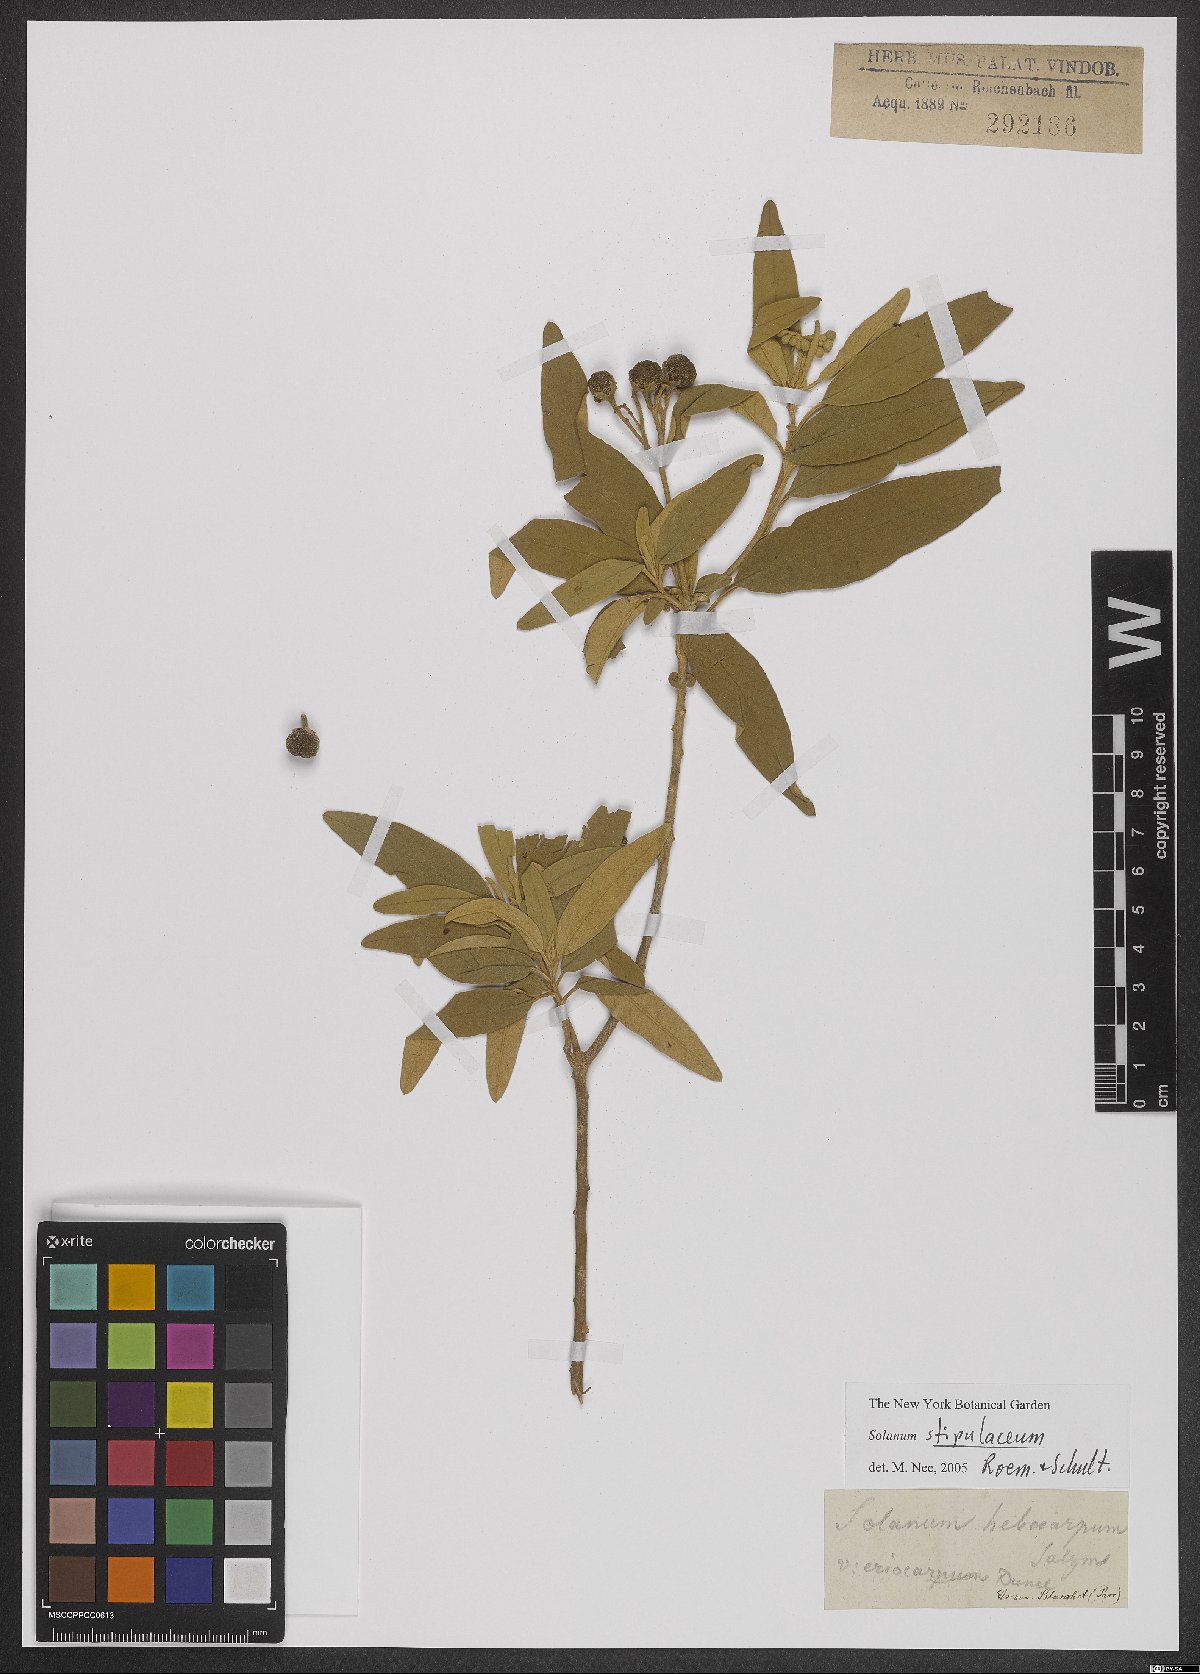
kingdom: Plantae
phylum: Tracheophyta
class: Magnoliopsida
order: Solanales
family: Solanaceae
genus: Solanum
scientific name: Solanum stipulaceum
